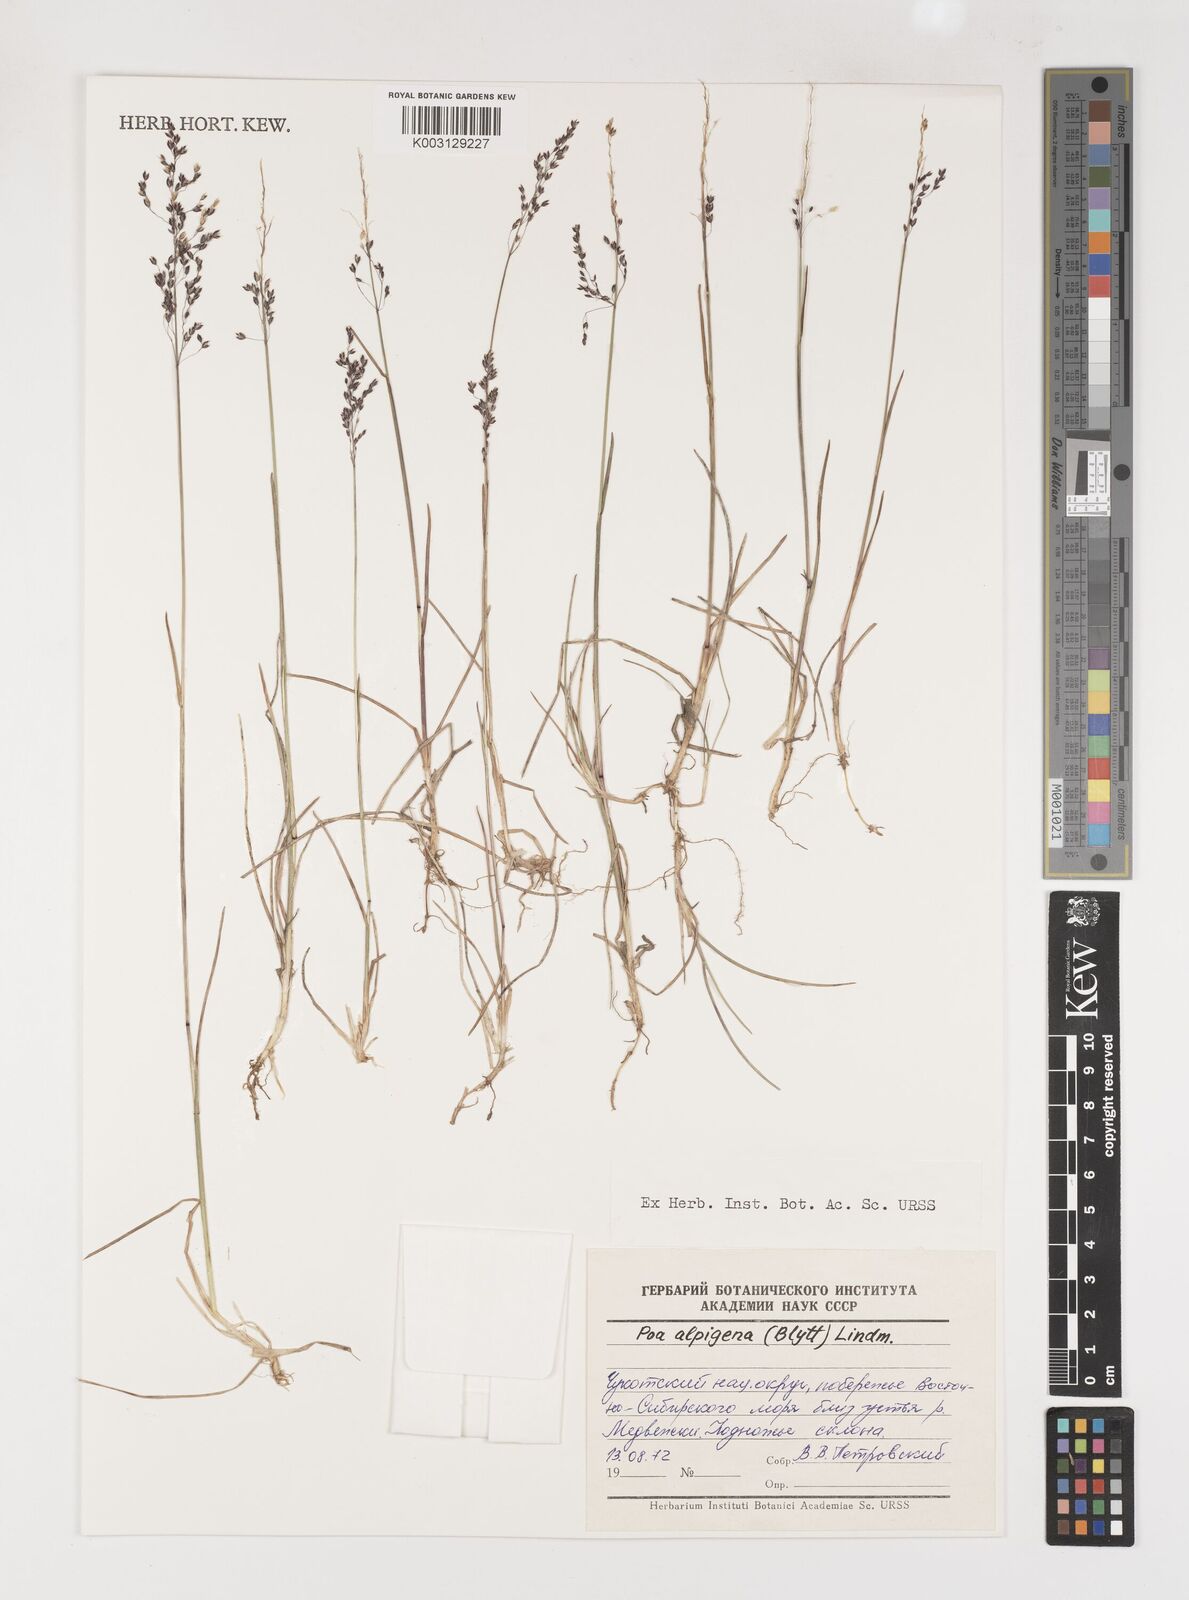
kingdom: Plantae
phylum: Tracheophyta
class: Liliopsida
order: Poales
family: Poaceae
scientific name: Poaceae
